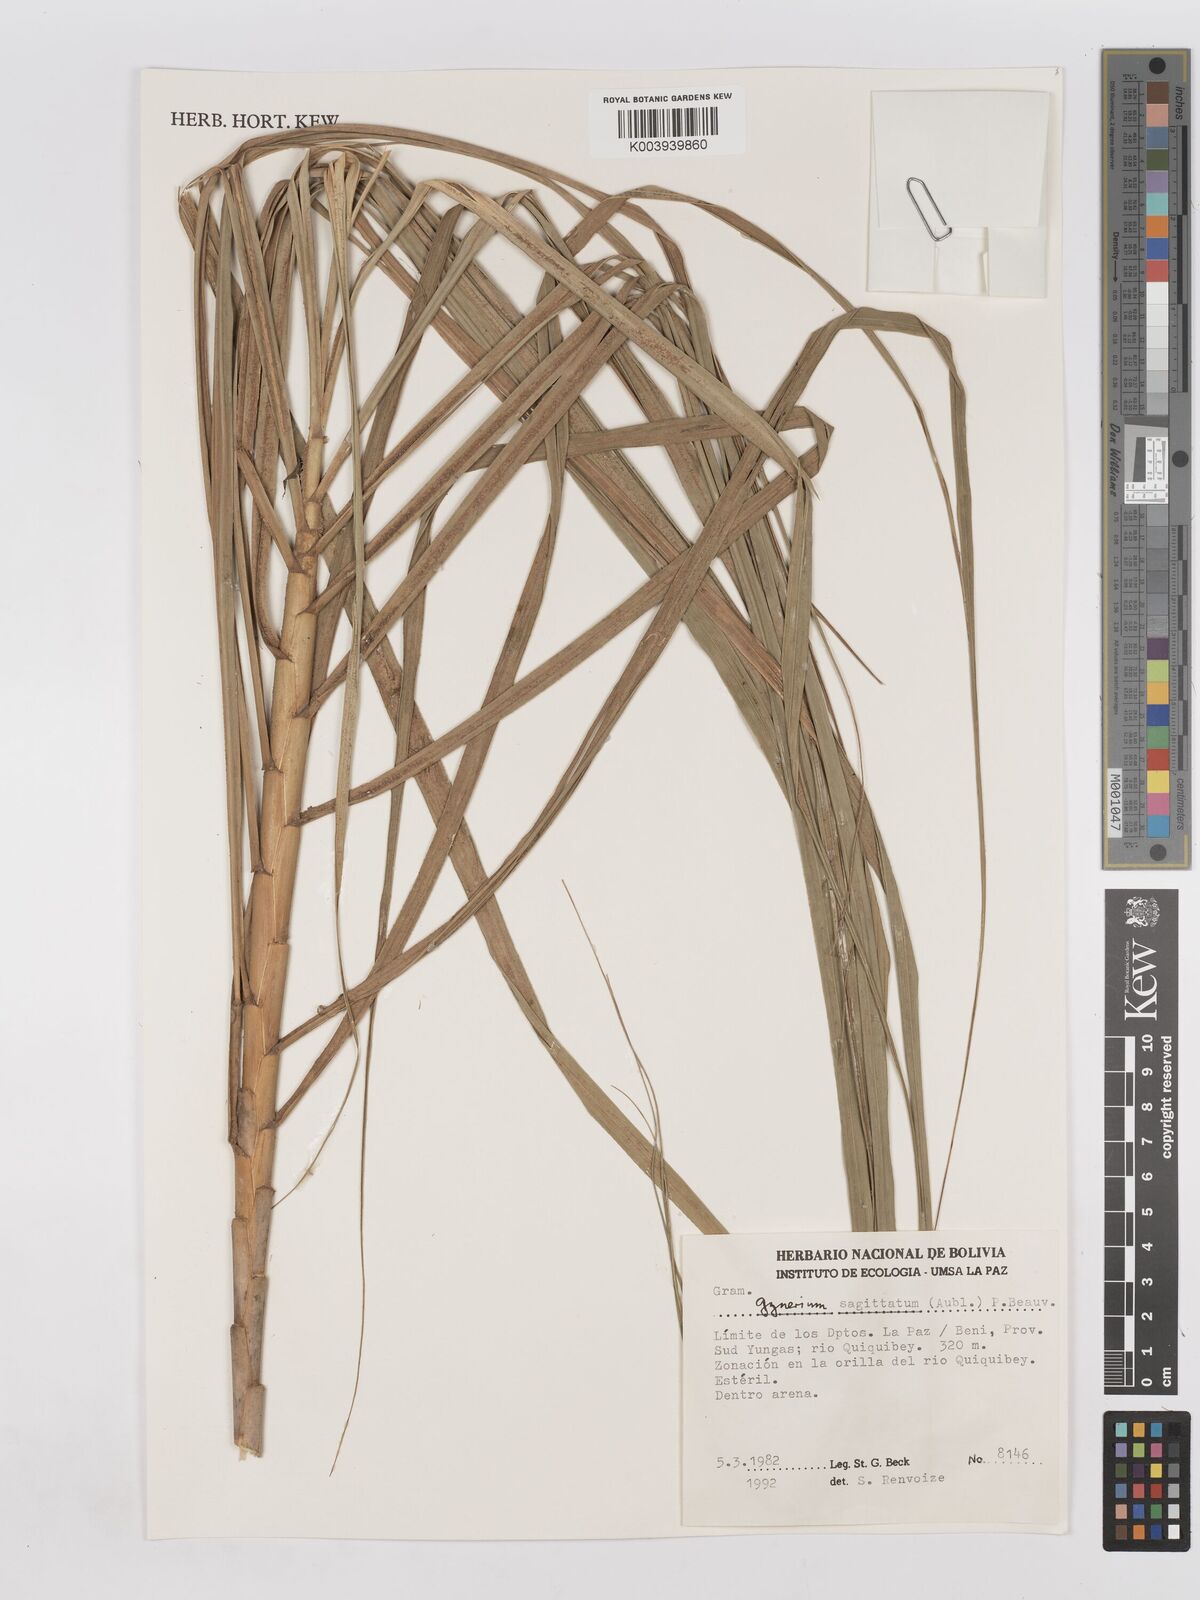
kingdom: Plantae
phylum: Tracheophyta
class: Liliopsida
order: Poales
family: Poaceae
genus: Gynerium
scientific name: Gynerium sagittatum
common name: Wild cane
